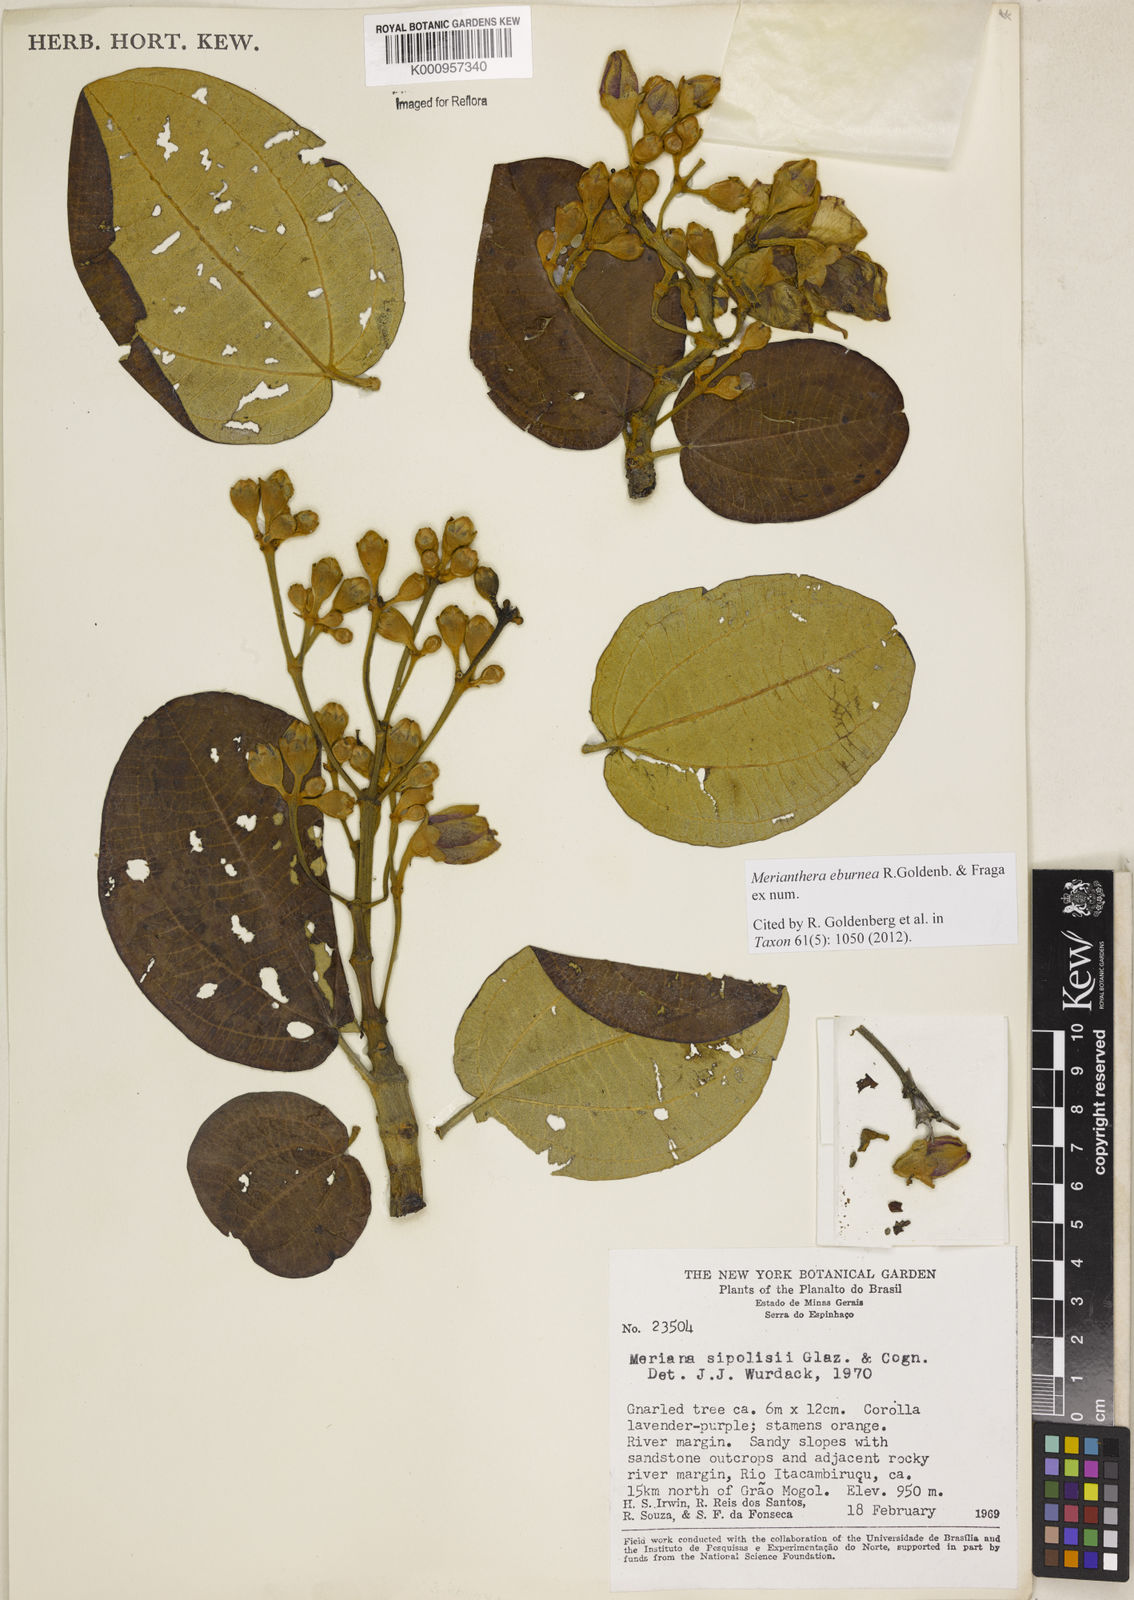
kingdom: Plantae
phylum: Tracheophyta
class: Magnoliopsida
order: Myrtales
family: Melastomataceae
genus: Merianthera
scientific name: Merianthera eburnea
